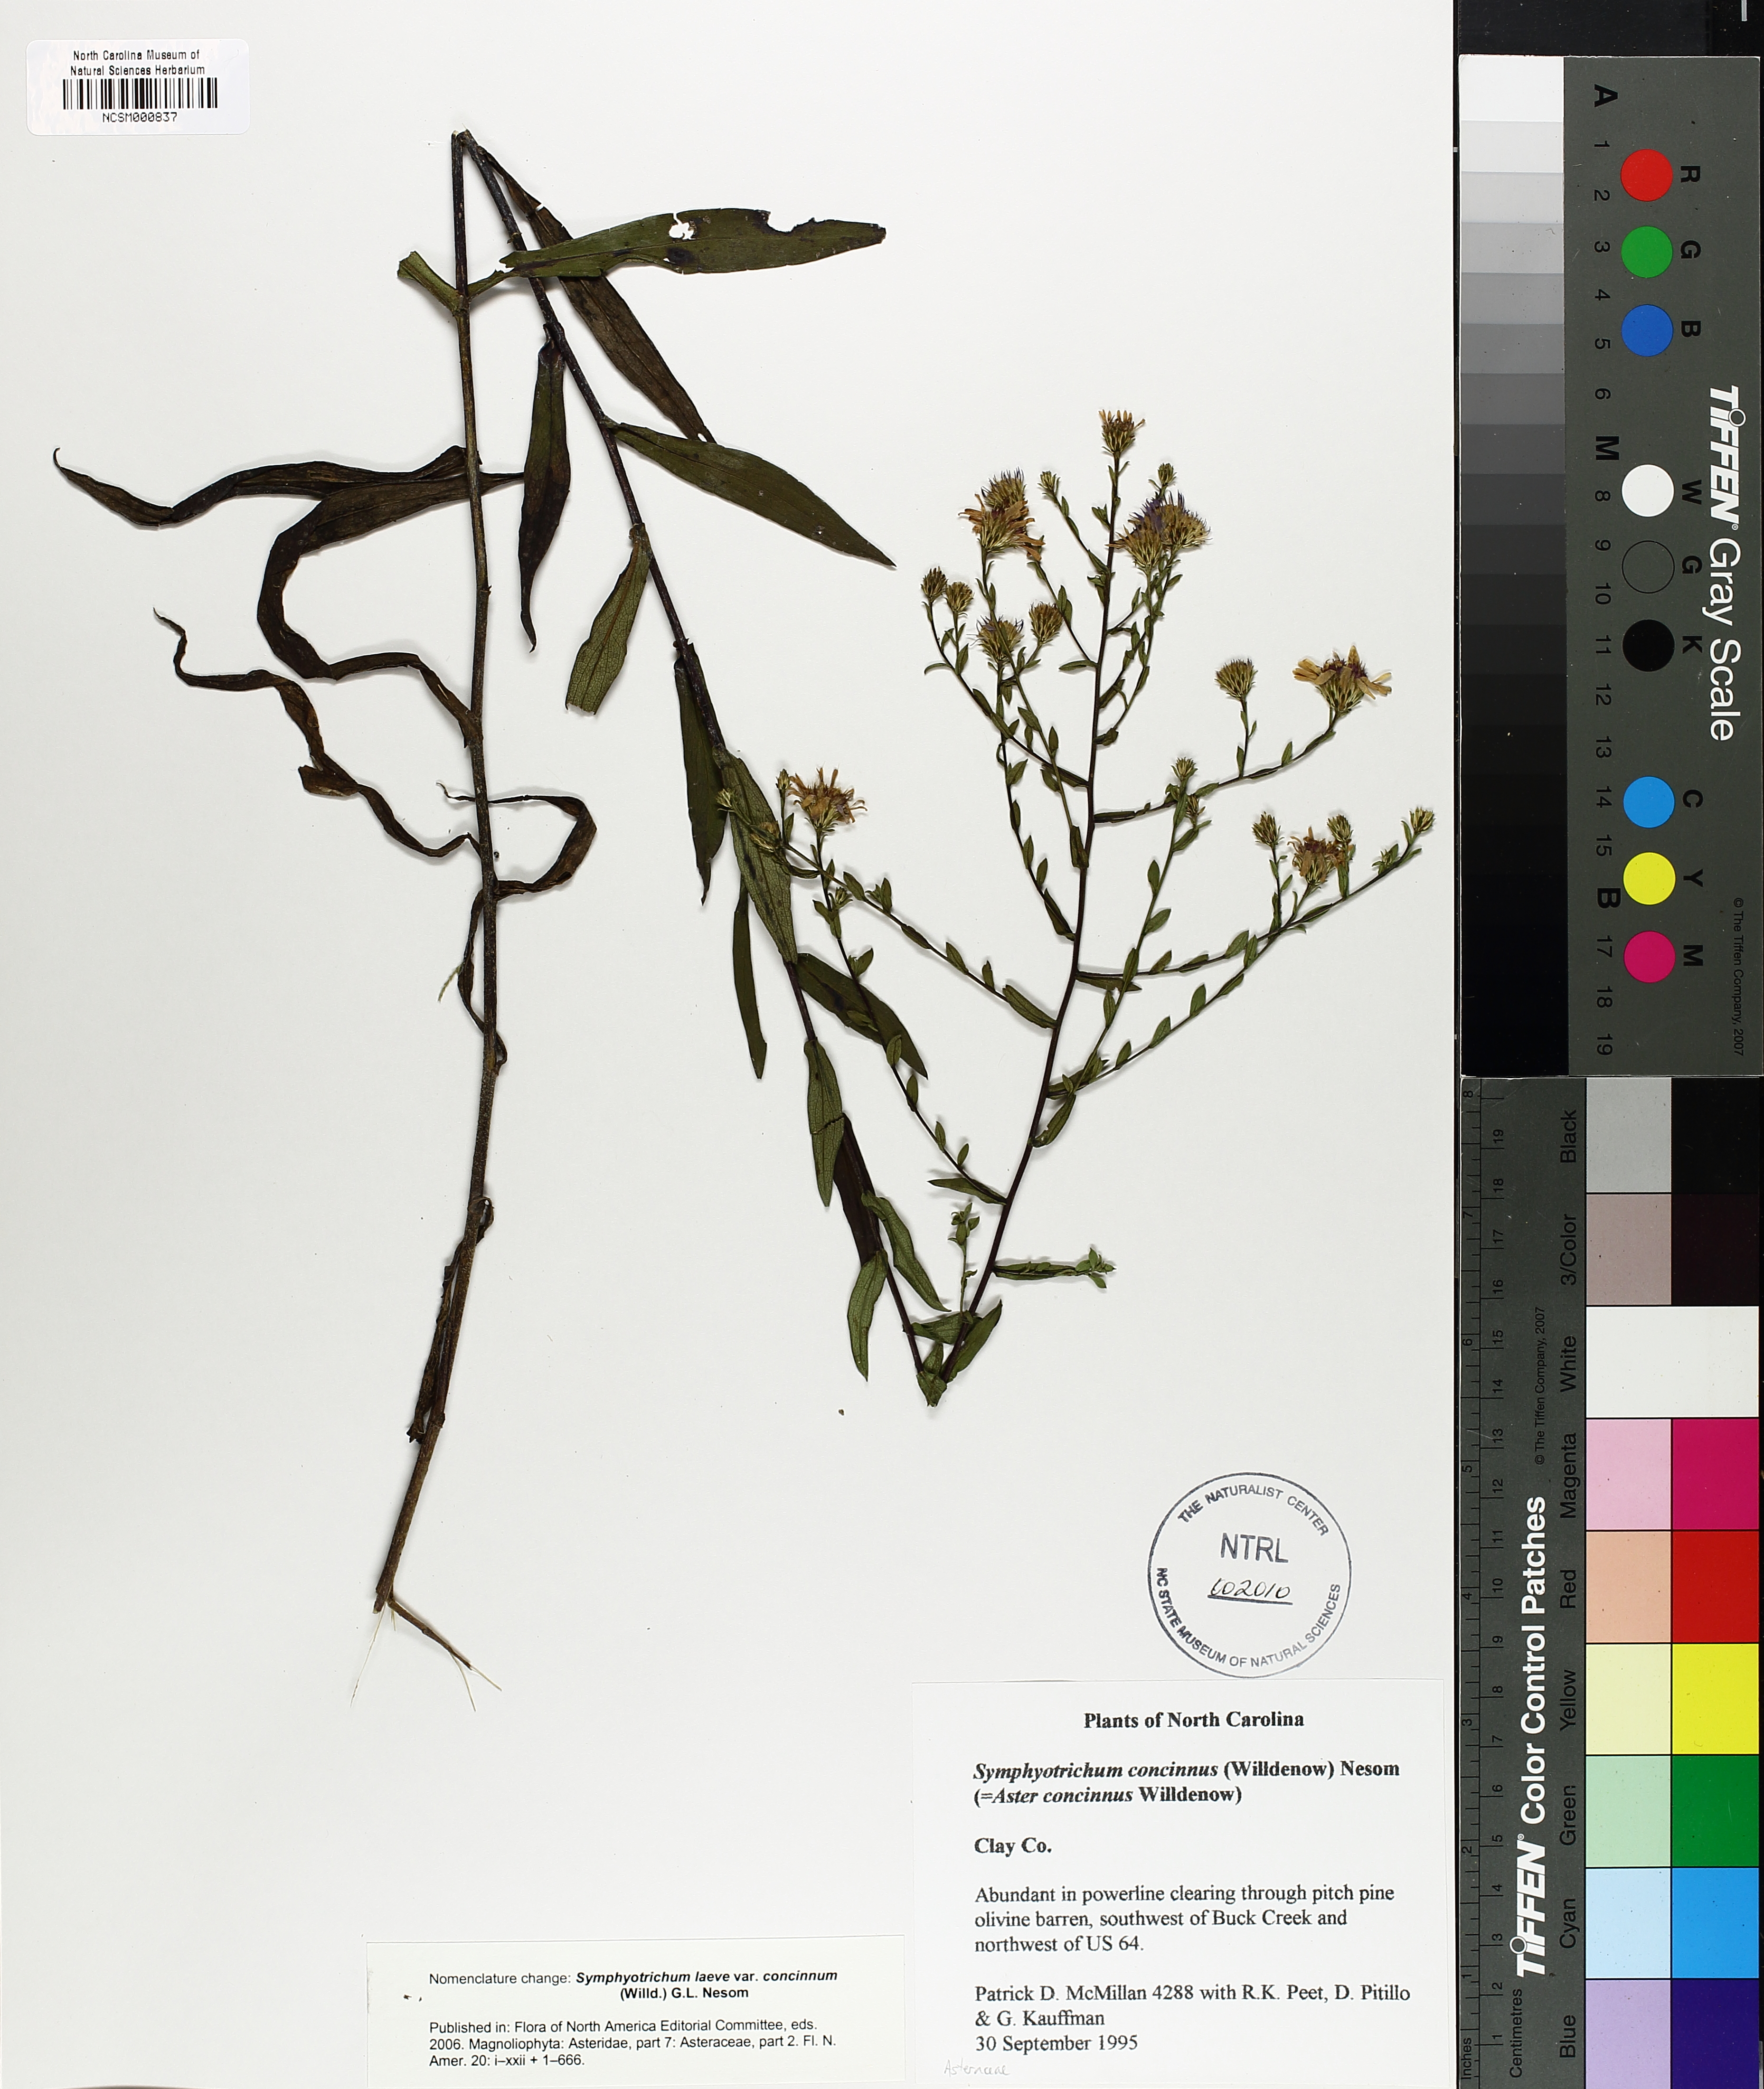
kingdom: Plantae
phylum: Tracheophyta
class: Magnoliopsida
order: Asterales
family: Asteraceae
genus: Symphyotrichum
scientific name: Symphyotrichum laeve
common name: Glaucous aster
